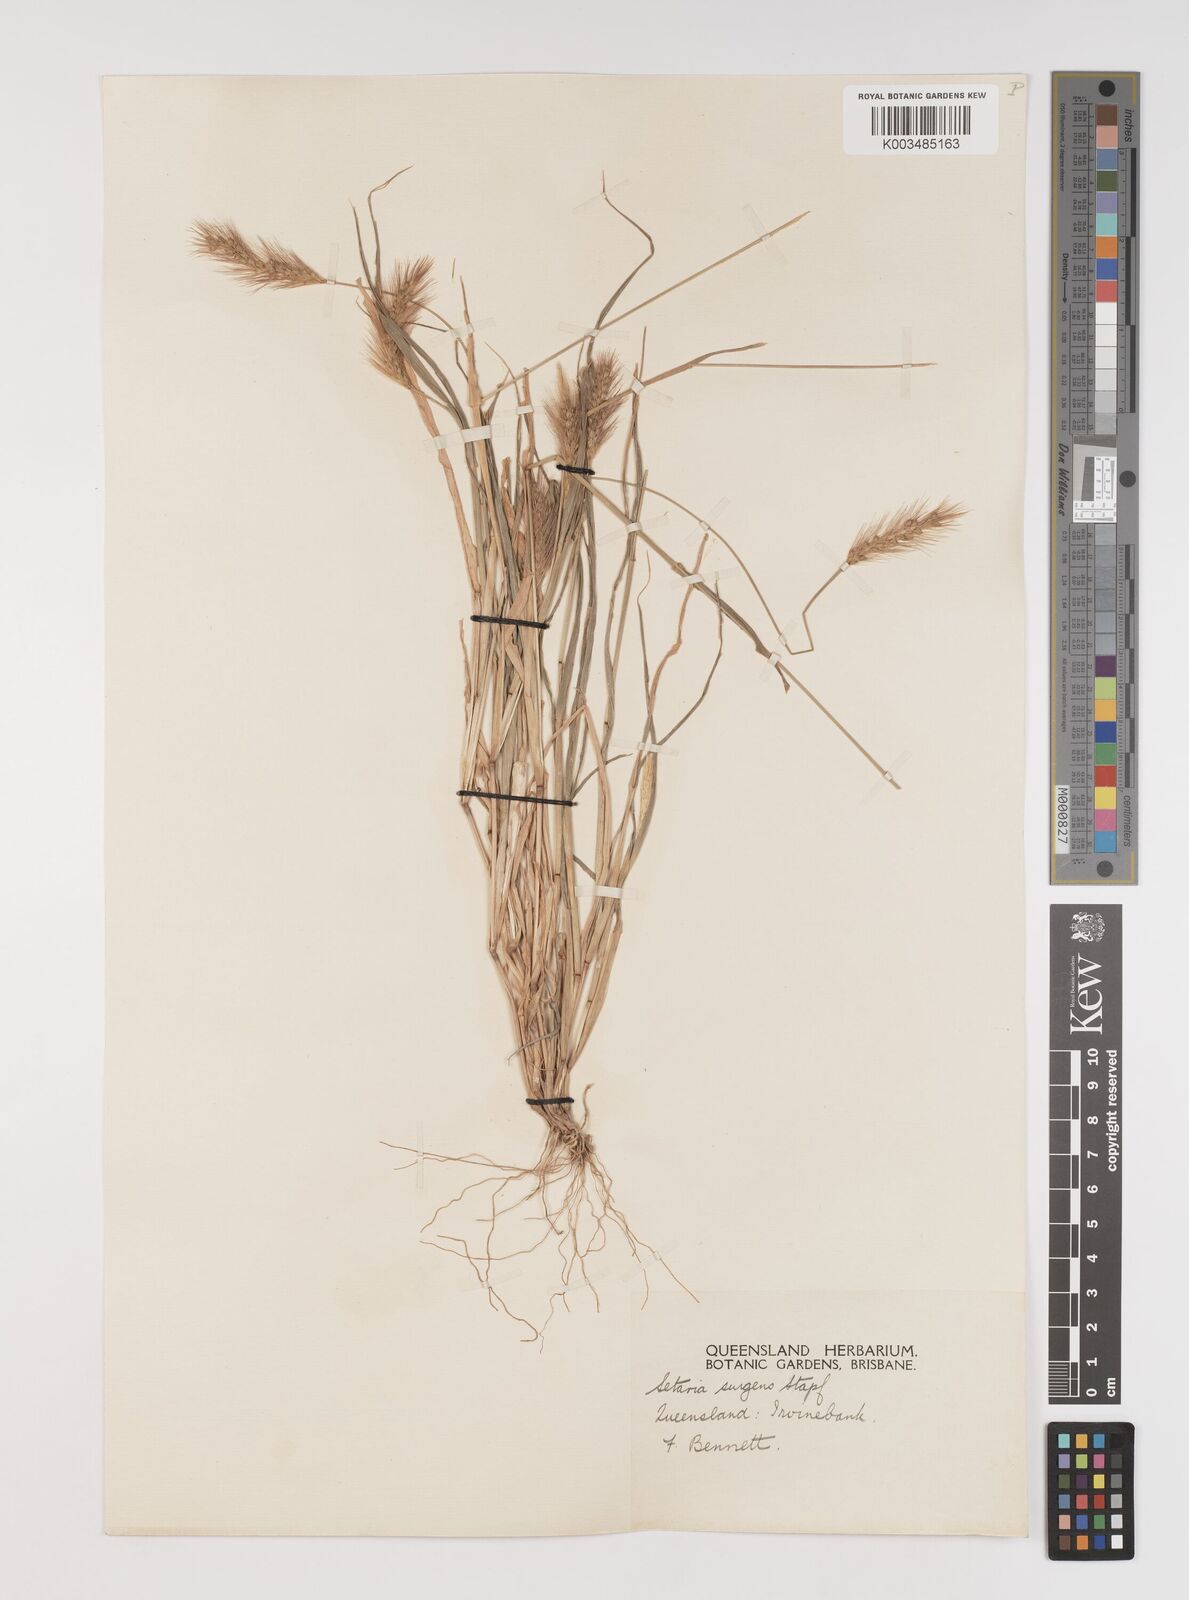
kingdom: Plantae
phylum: Tracheophyta
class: Liliopsida
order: Poales
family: Poaceae
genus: Setaria
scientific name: Setaria brownii
